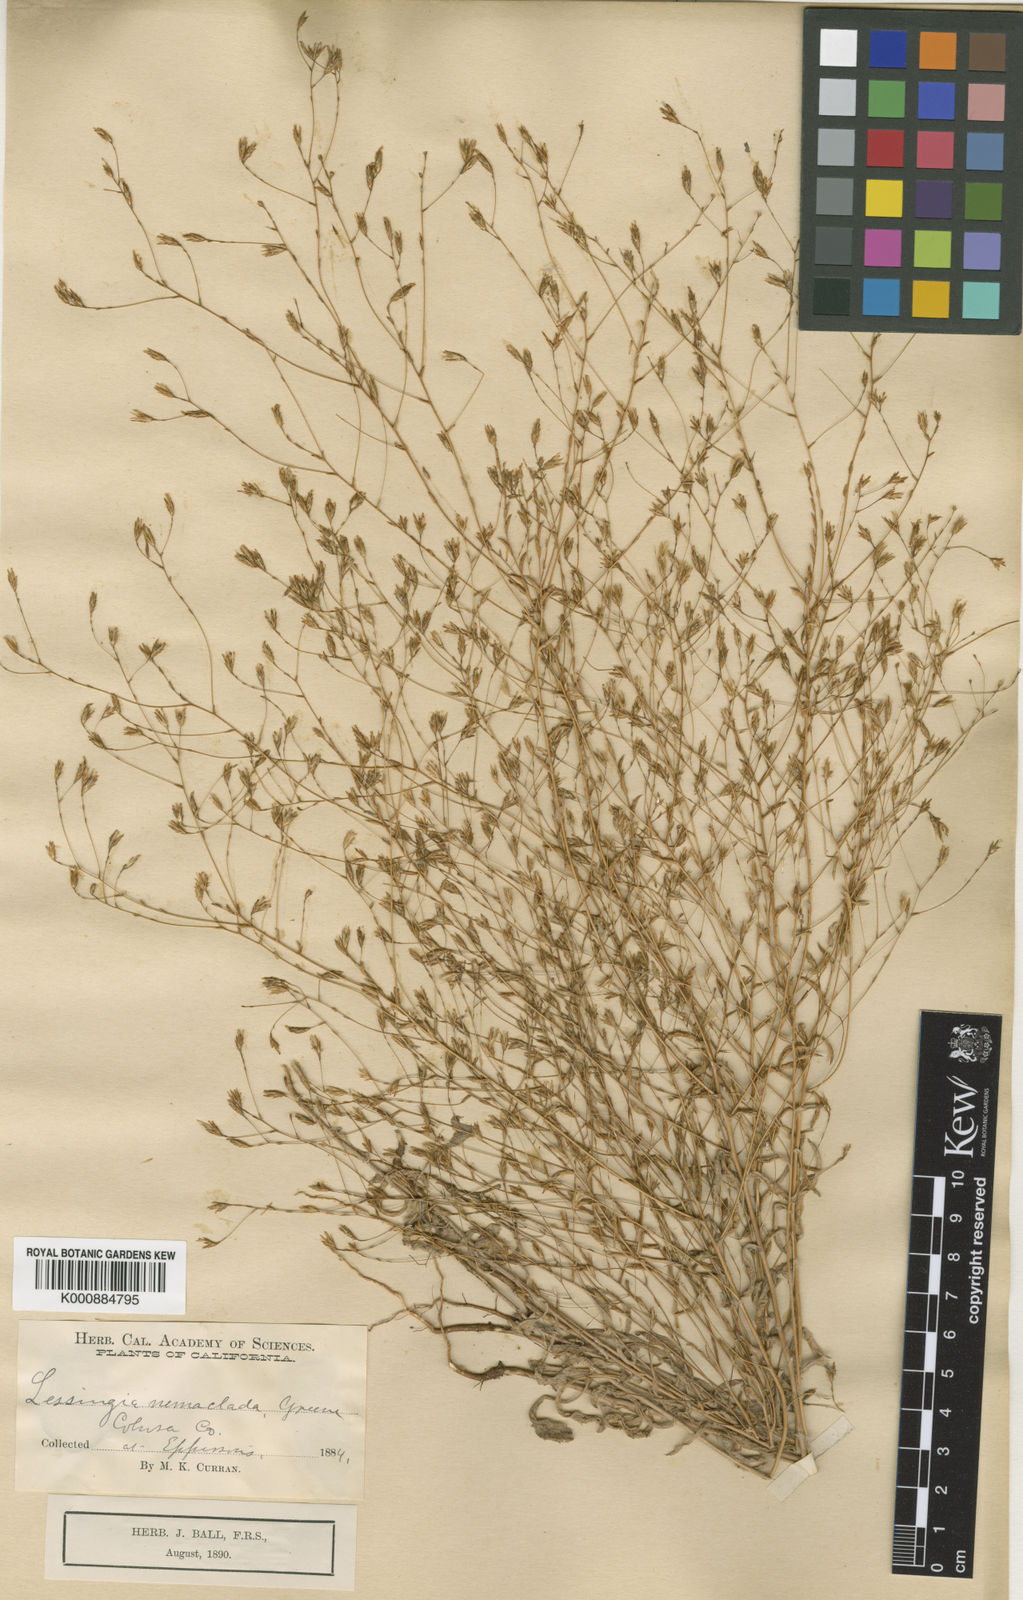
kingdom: Plantae
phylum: Tracheophyta
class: Magnoliopsida
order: Asterales
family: Asteraceae
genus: Lessingia
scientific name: Lessingia nemaclada
